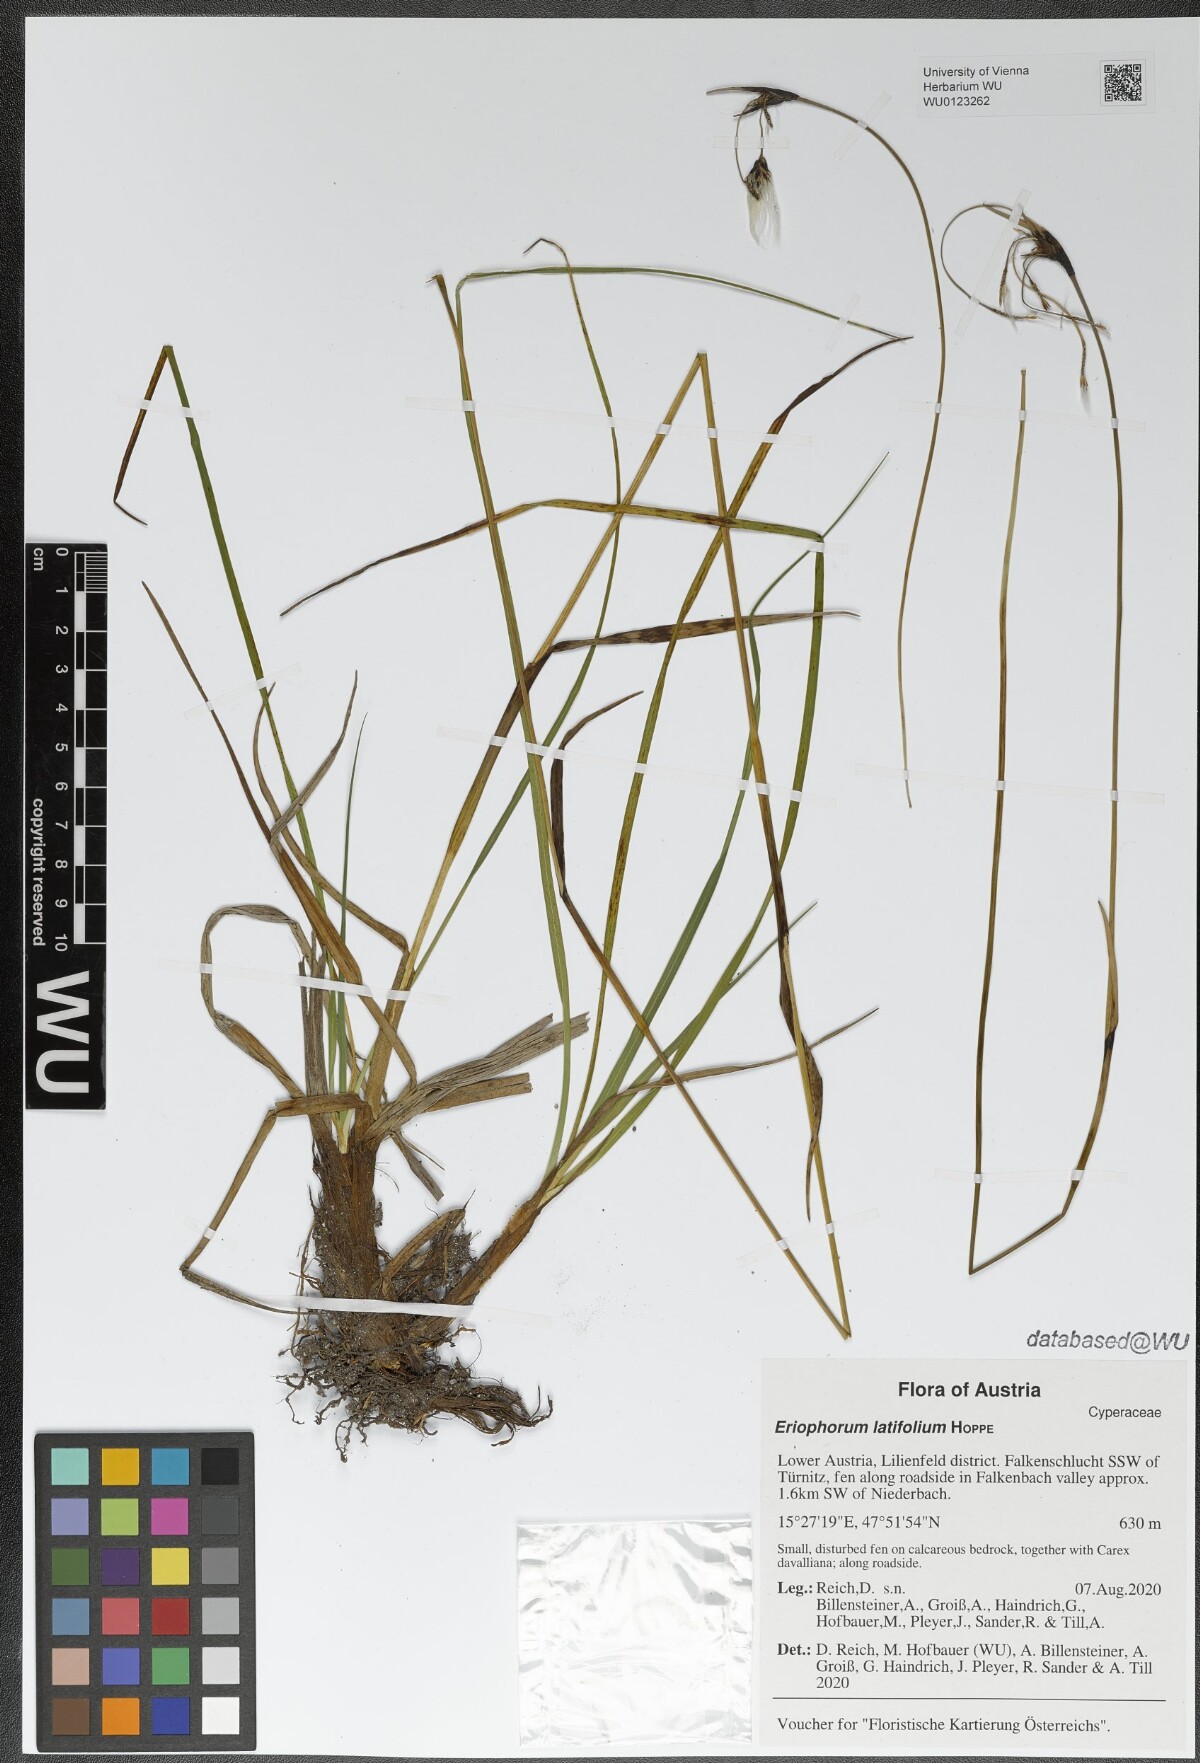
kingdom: Plantae
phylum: Tracheophyta
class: Liliopsida
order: Poales
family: Cyperaceae
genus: Eriophorum
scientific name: Eriophorum latifolium
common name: Broad-leaved cottongrass
